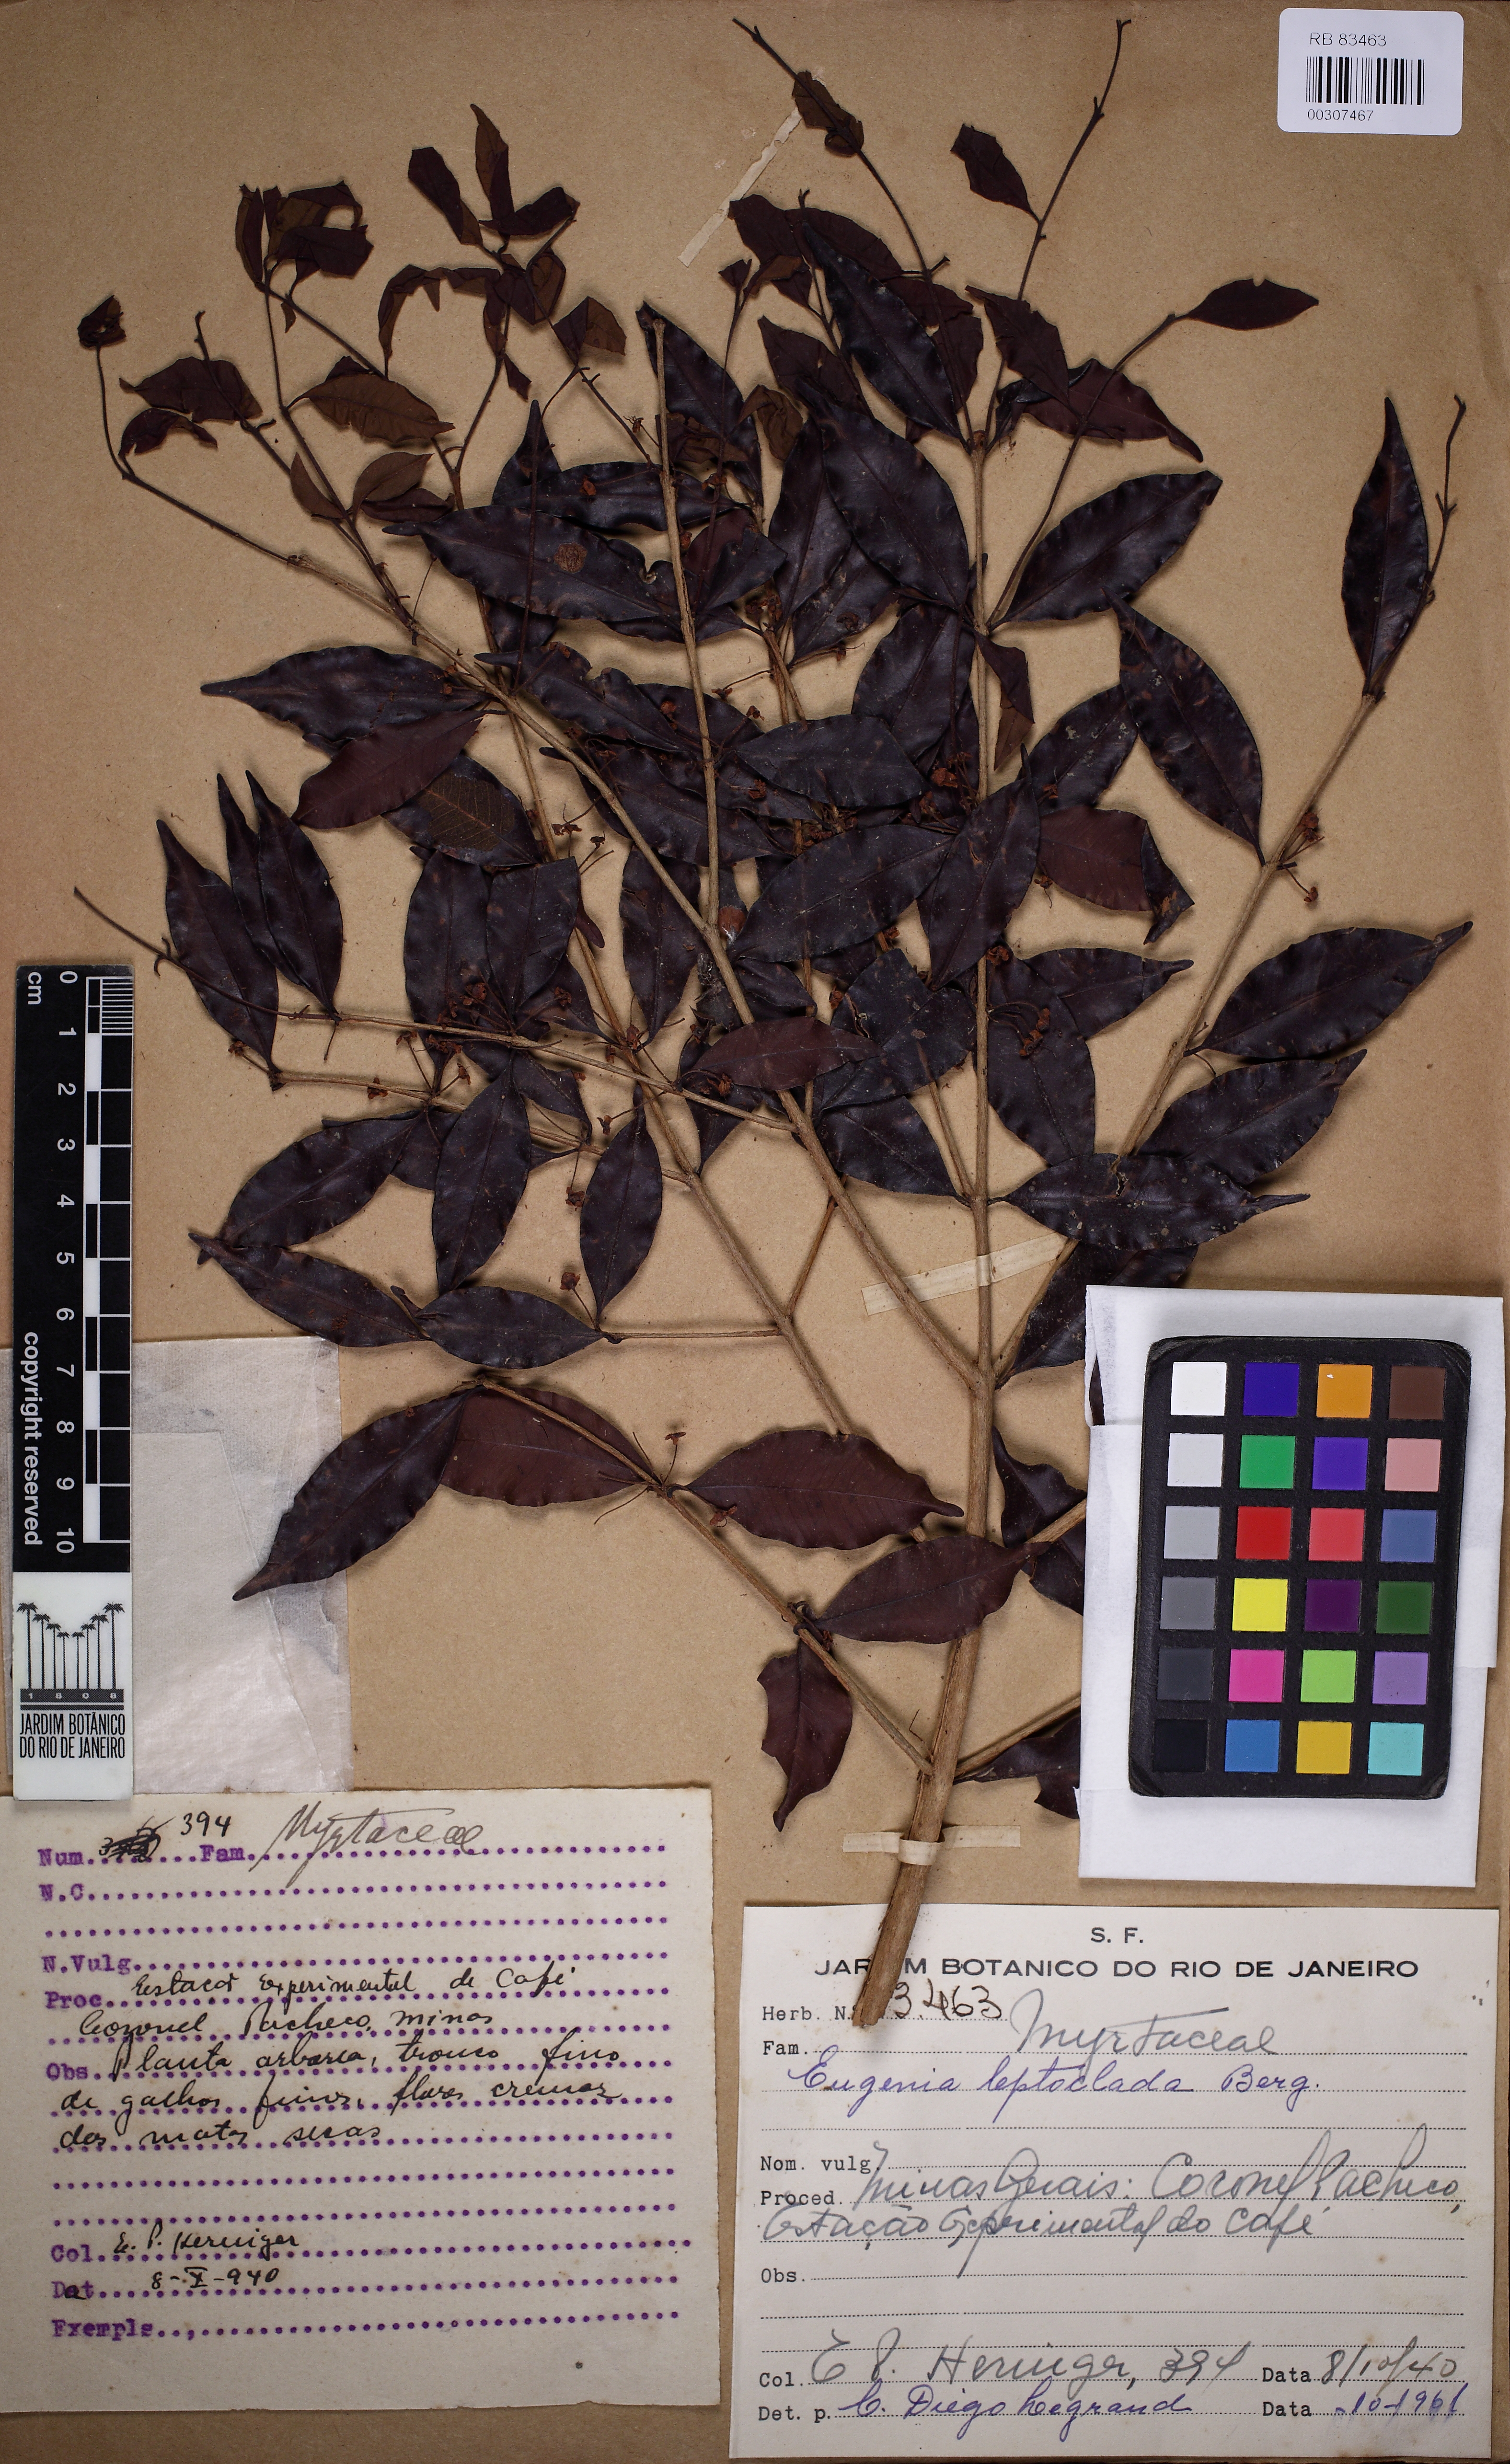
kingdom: Plantae
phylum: Tracheophyta
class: Magnoliopsida
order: Myrtales
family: Myrtaceae
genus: Eugenia
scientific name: Eugenia leptoclada
